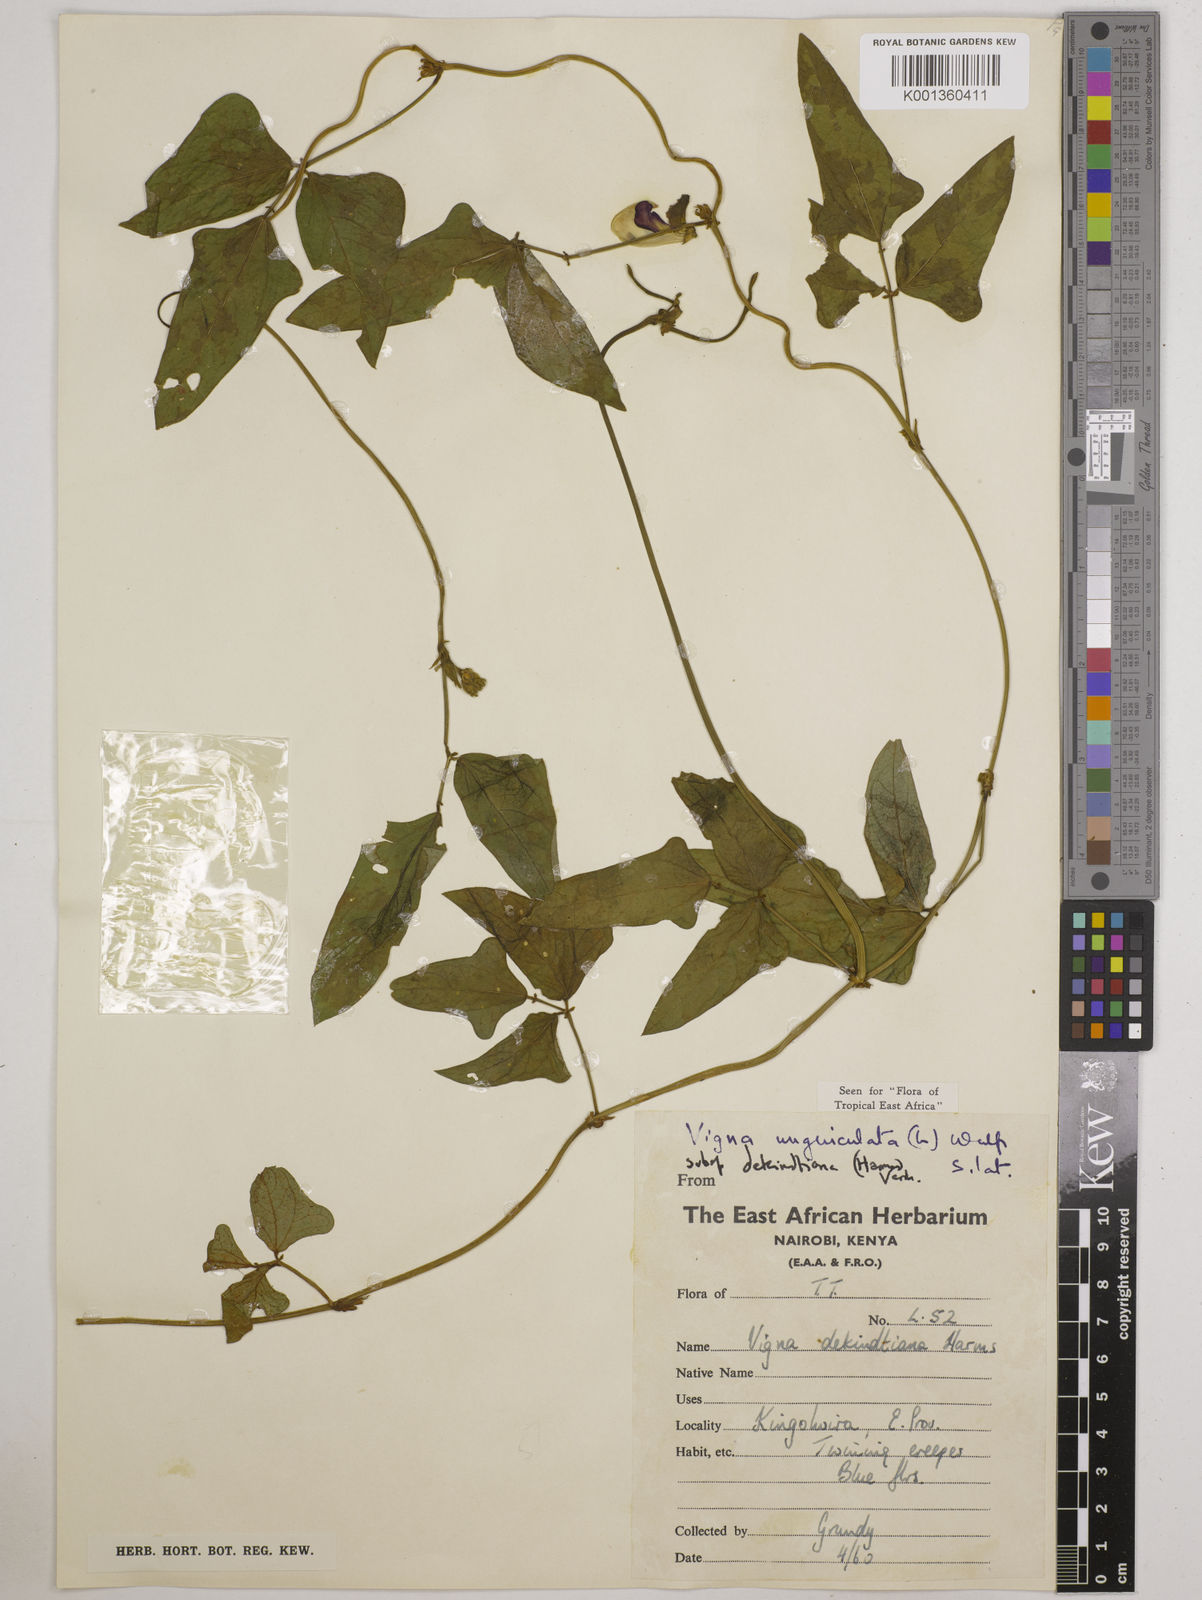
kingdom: Plantae
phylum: Tracheophyta
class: Magnoliopsida
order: Fabales
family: Fabaceae
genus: Vigna
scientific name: Vigna
